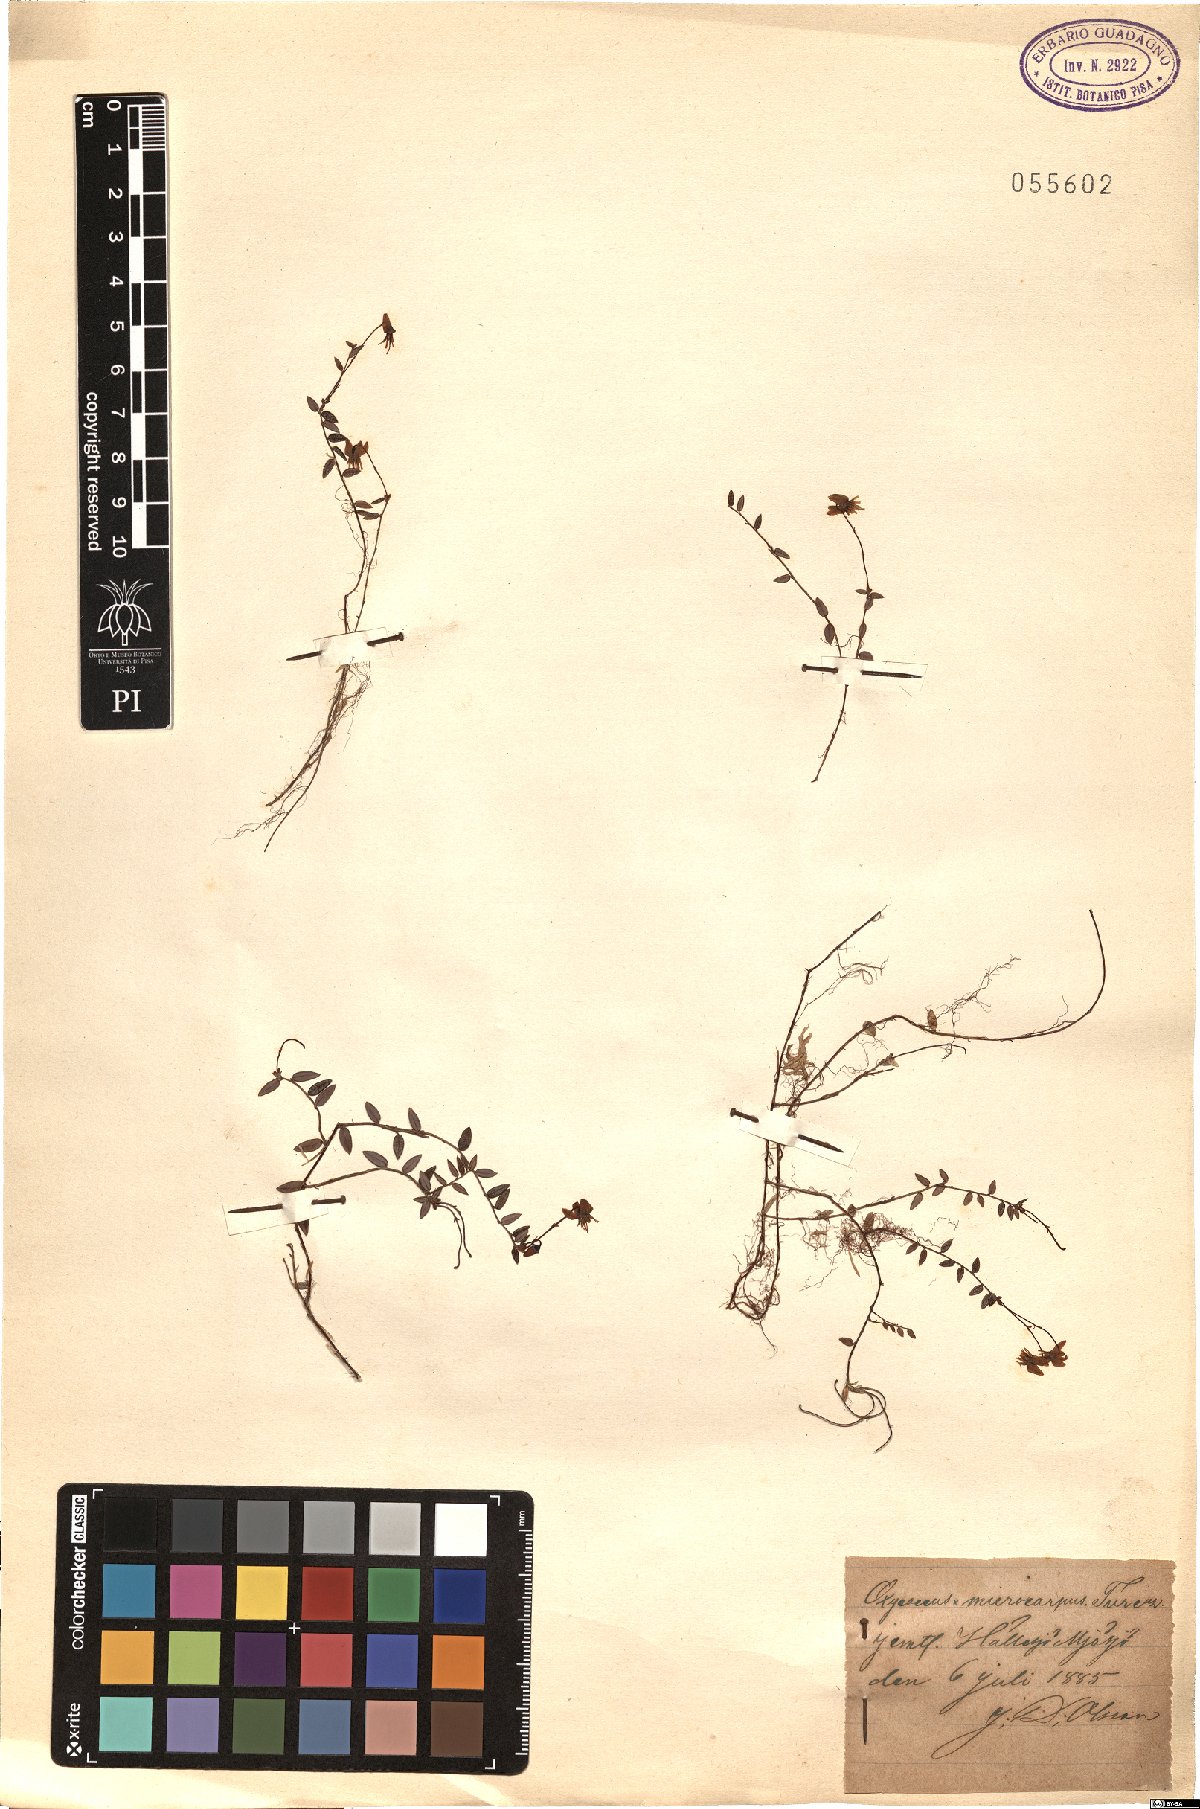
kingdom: Plantae
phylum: Tracheophyta
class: Magnoliopsida
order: Ericales
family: Ericaceae
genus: Vaccinium
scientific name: Vaccinium microcarpum
